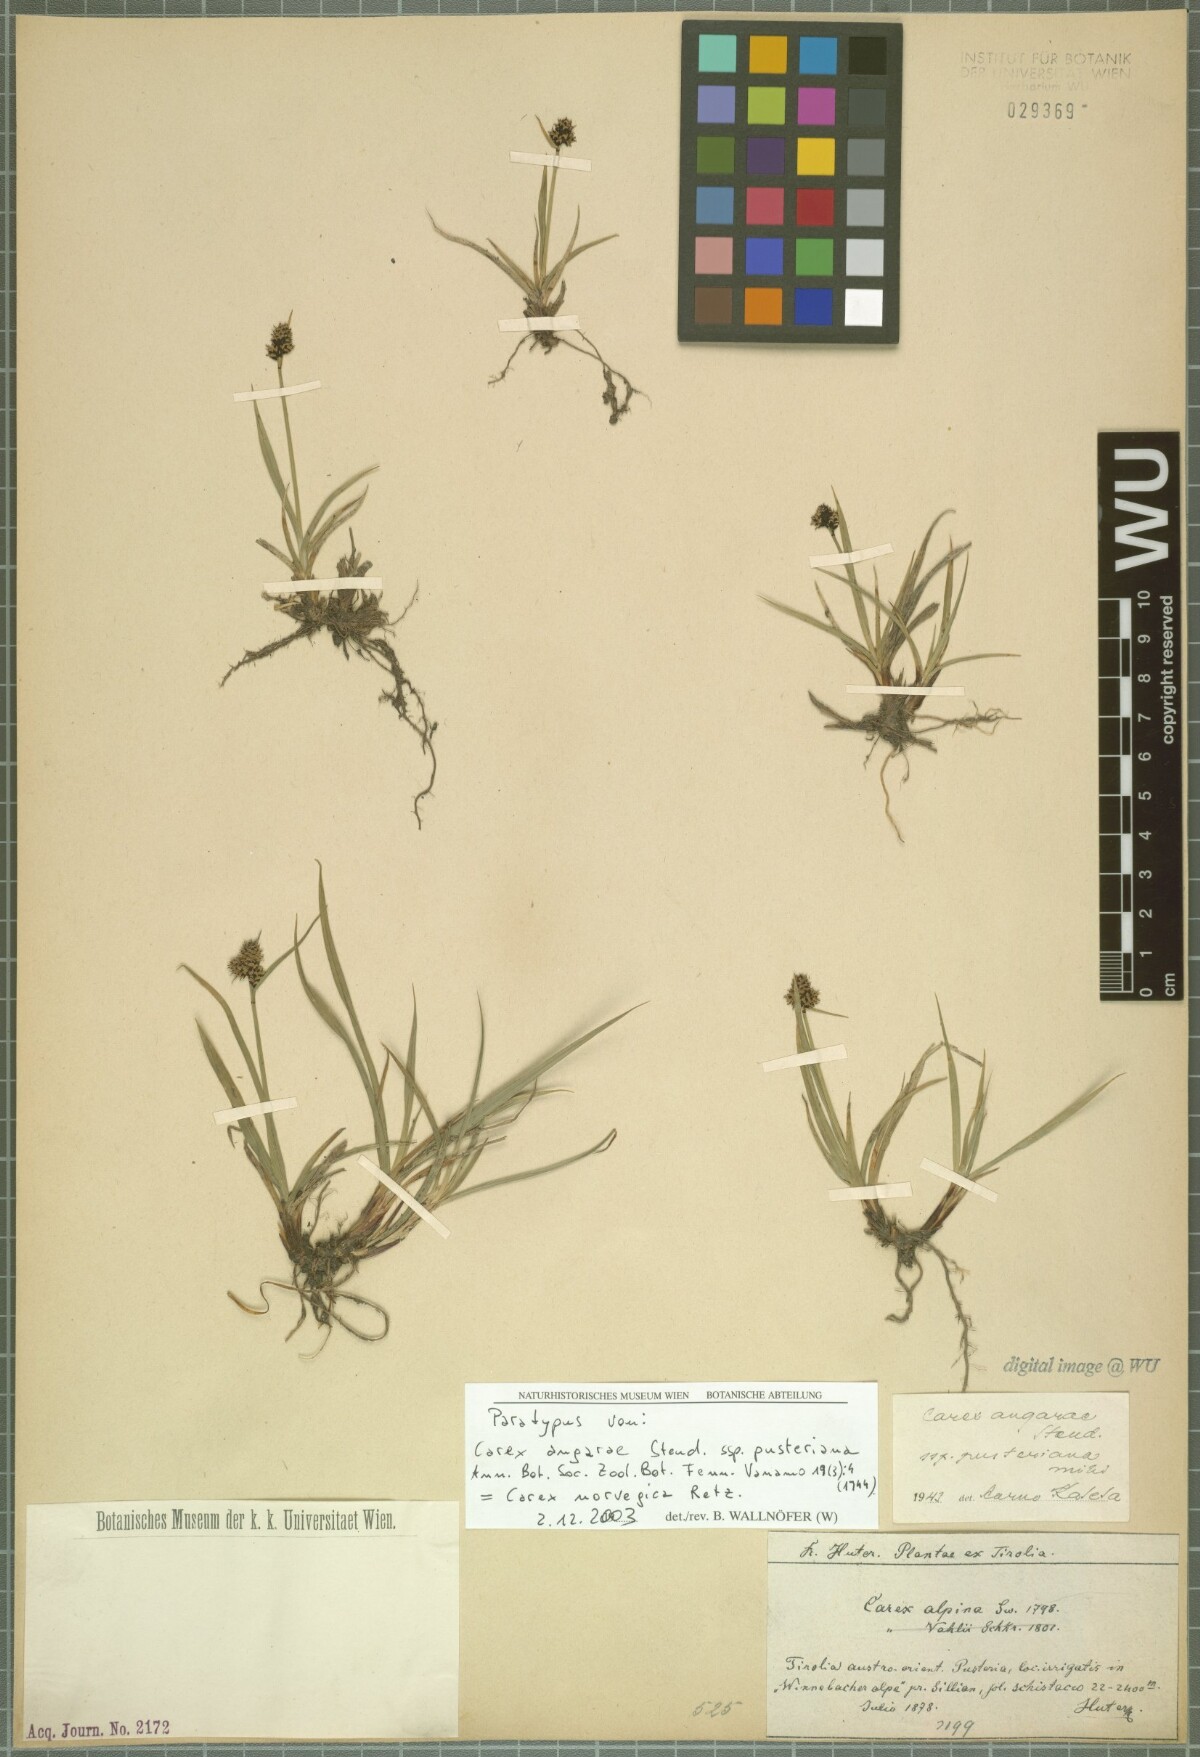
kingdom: Plantae
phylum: Tracheophyta
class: Liliopsida
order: Poales
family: Cyperaceae
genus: Carex
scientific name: Carex norvegica
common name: Close-headed alpine-sedge
